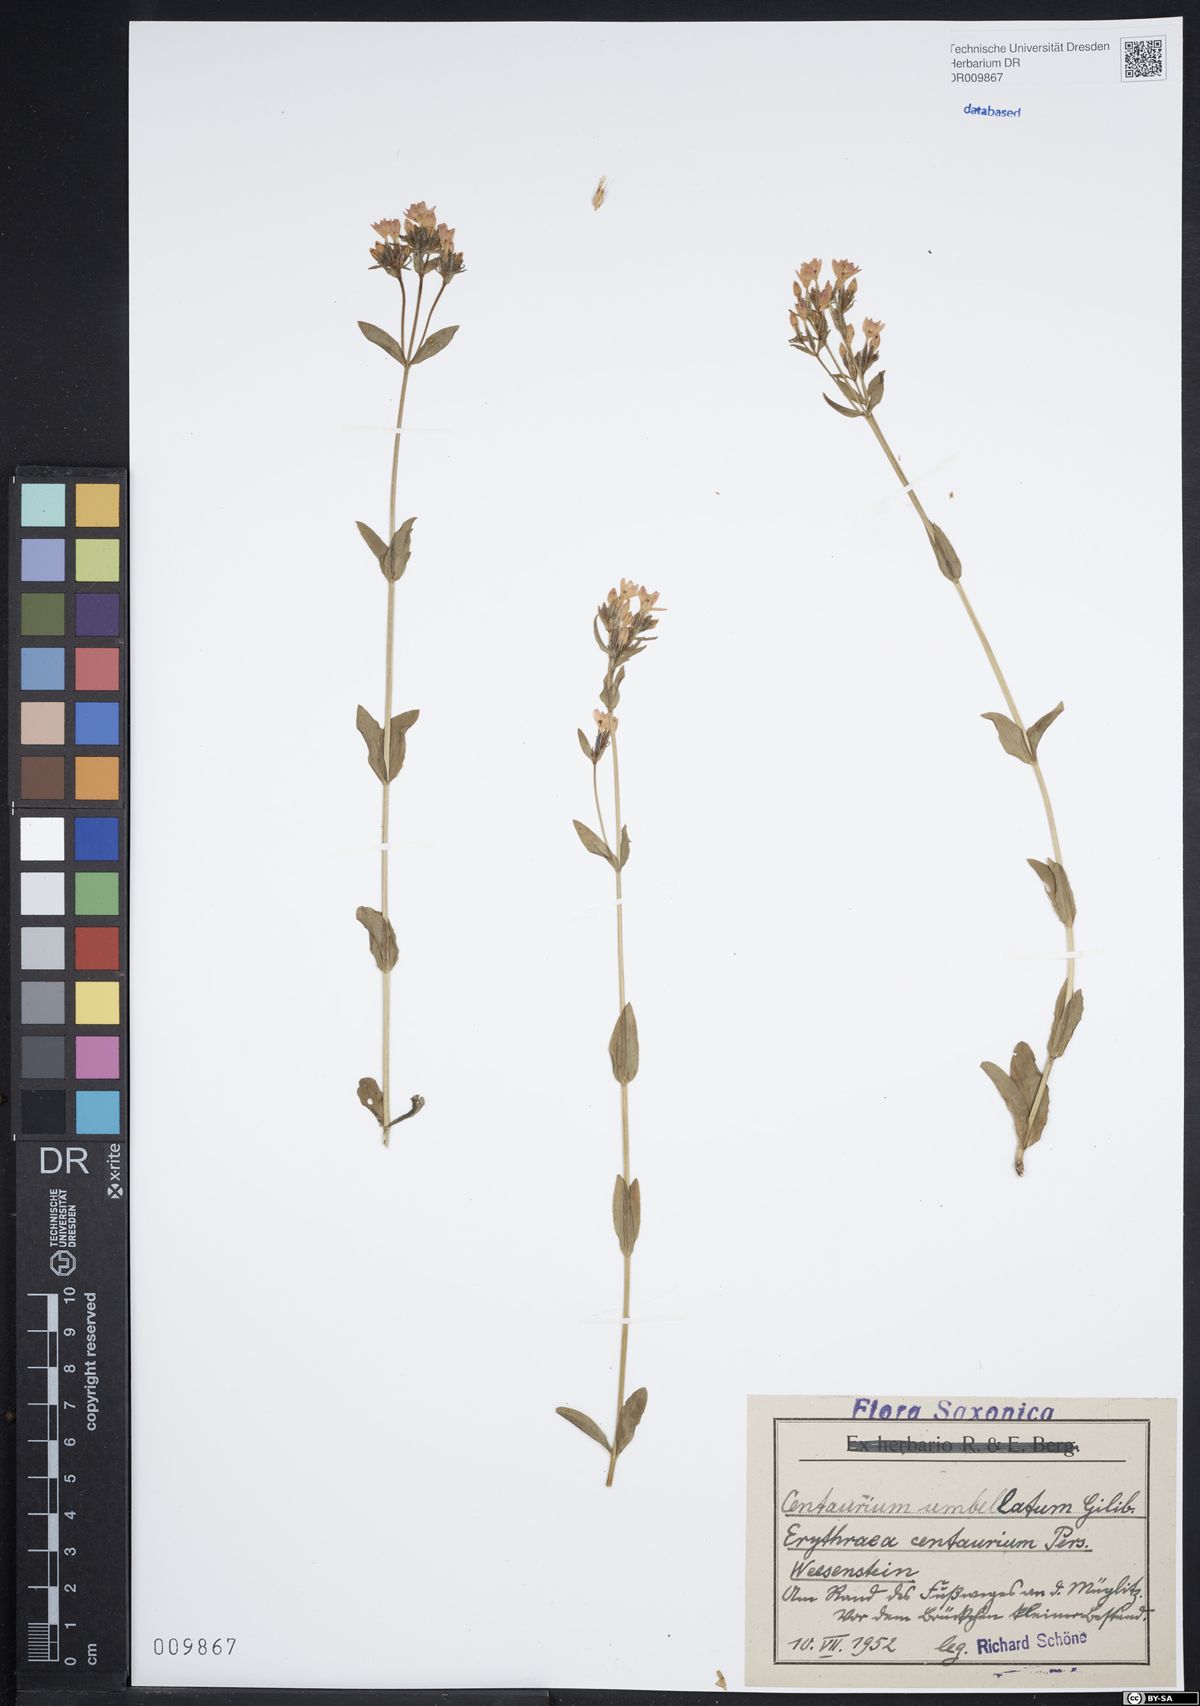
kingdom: Plantae
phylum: Tracheophyta
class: Magnoliopsida
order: Gentianales
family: Gentianaceae
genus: Centaurium
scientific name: Centaurium erythraea
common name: Common centaury
